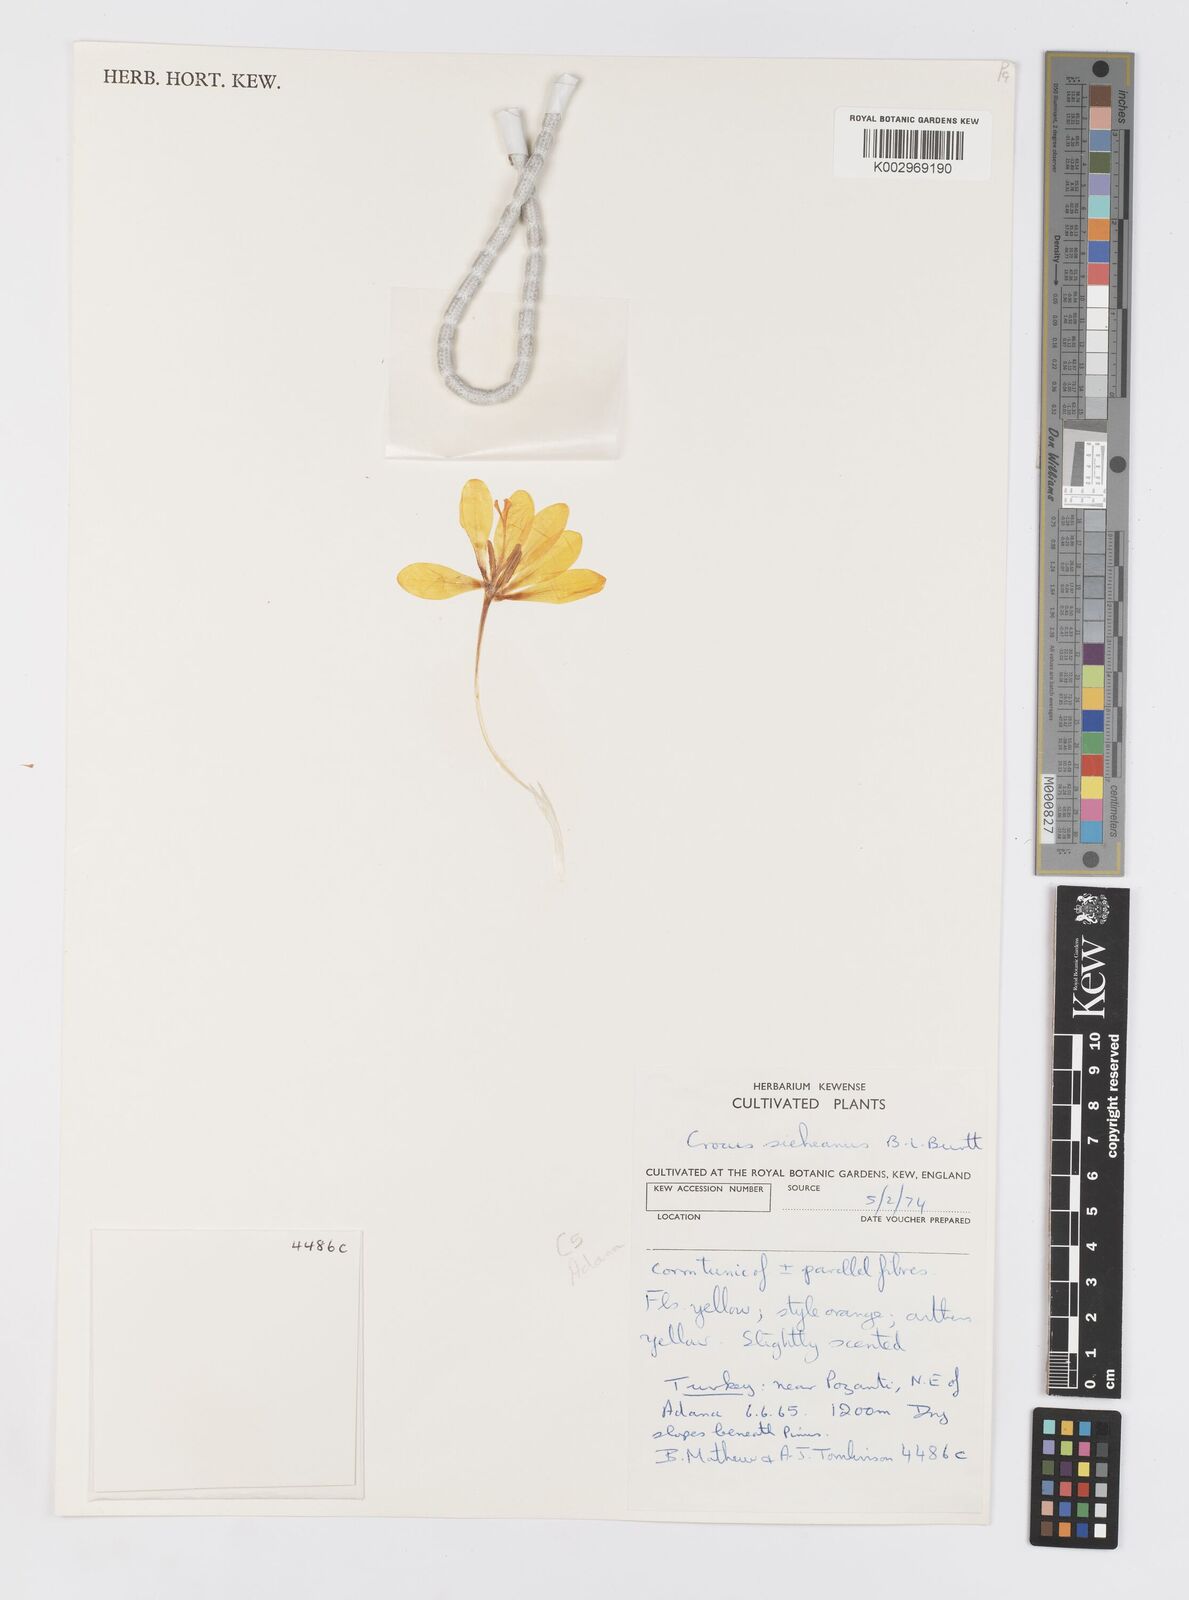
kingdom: Plantae
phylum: Tracheophyta
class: Liliopsida
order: Asparagales
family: Iridaceae
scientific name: Iridaceae
